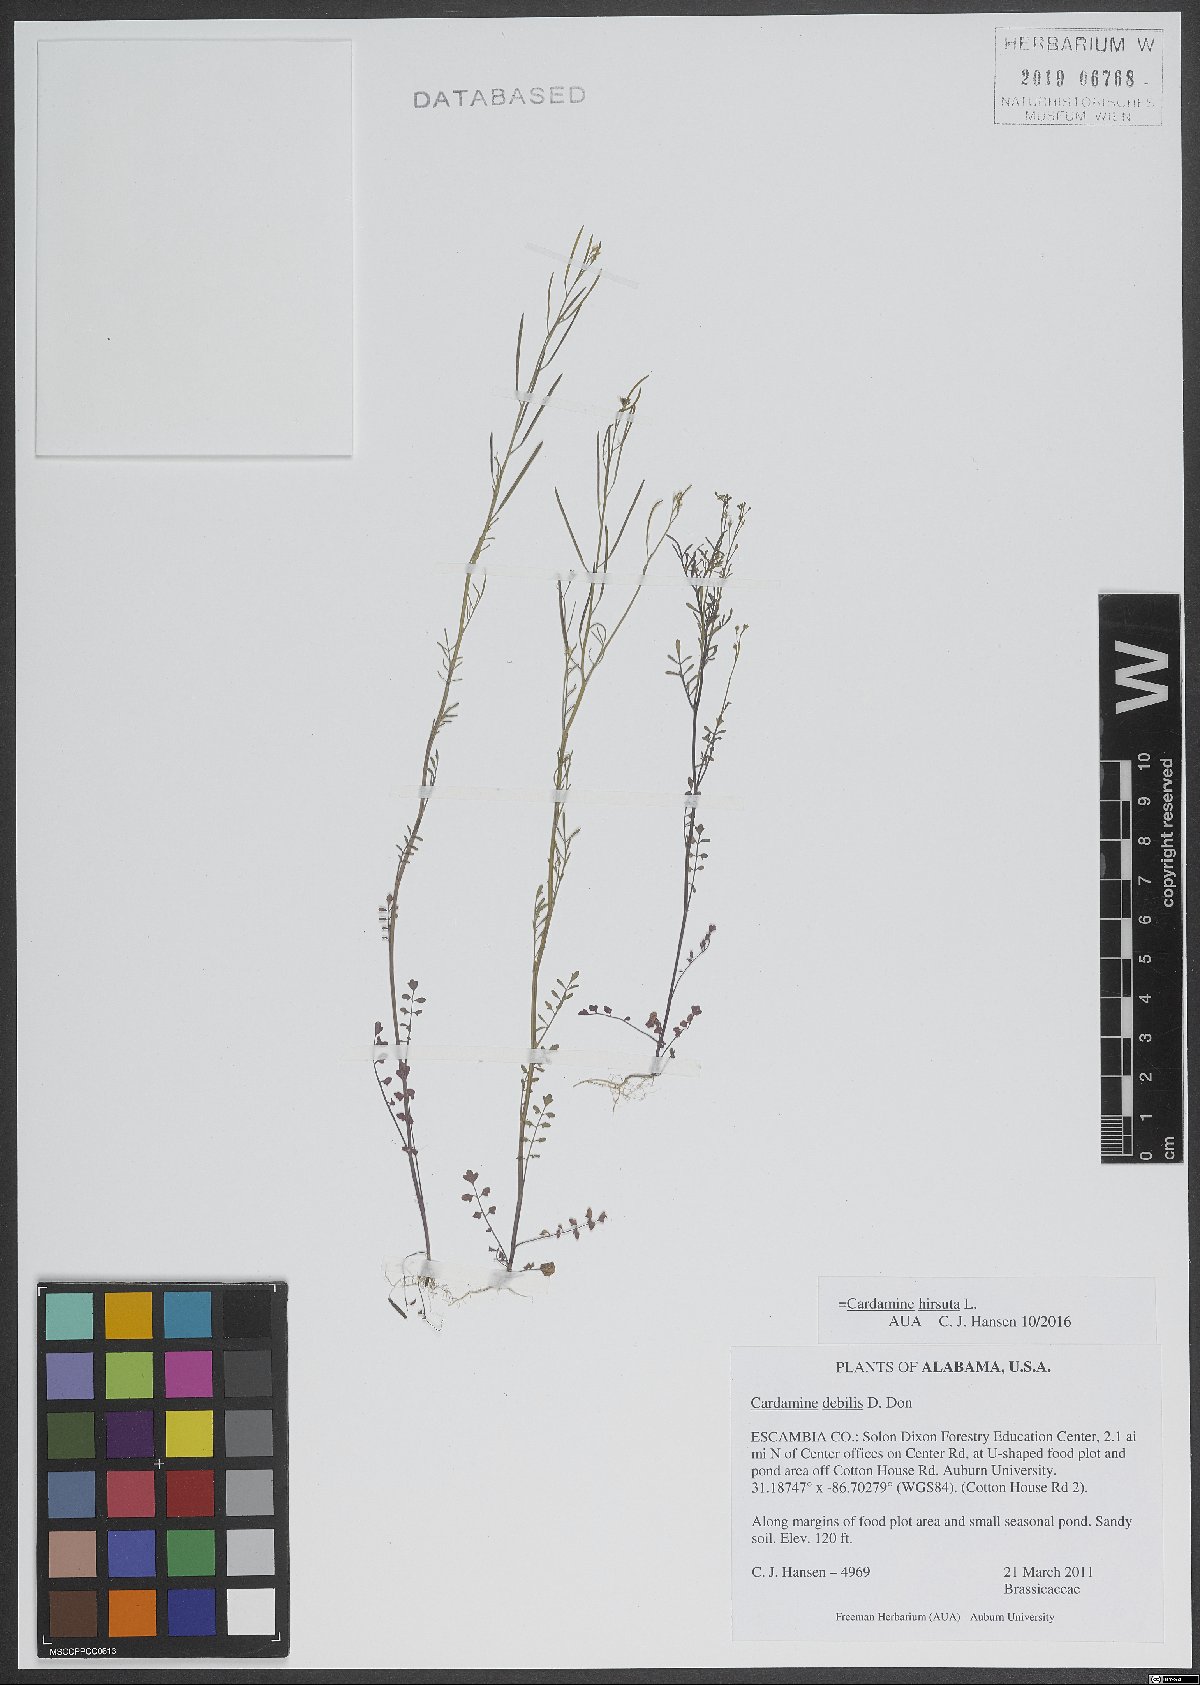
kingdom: Plantae
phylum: Tracheophyta
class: Magnoliopsida
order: Brassicales
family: Brassicaceae
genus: Cardamine
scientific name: Cardamine hirsuta
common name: Hairy bittercress
